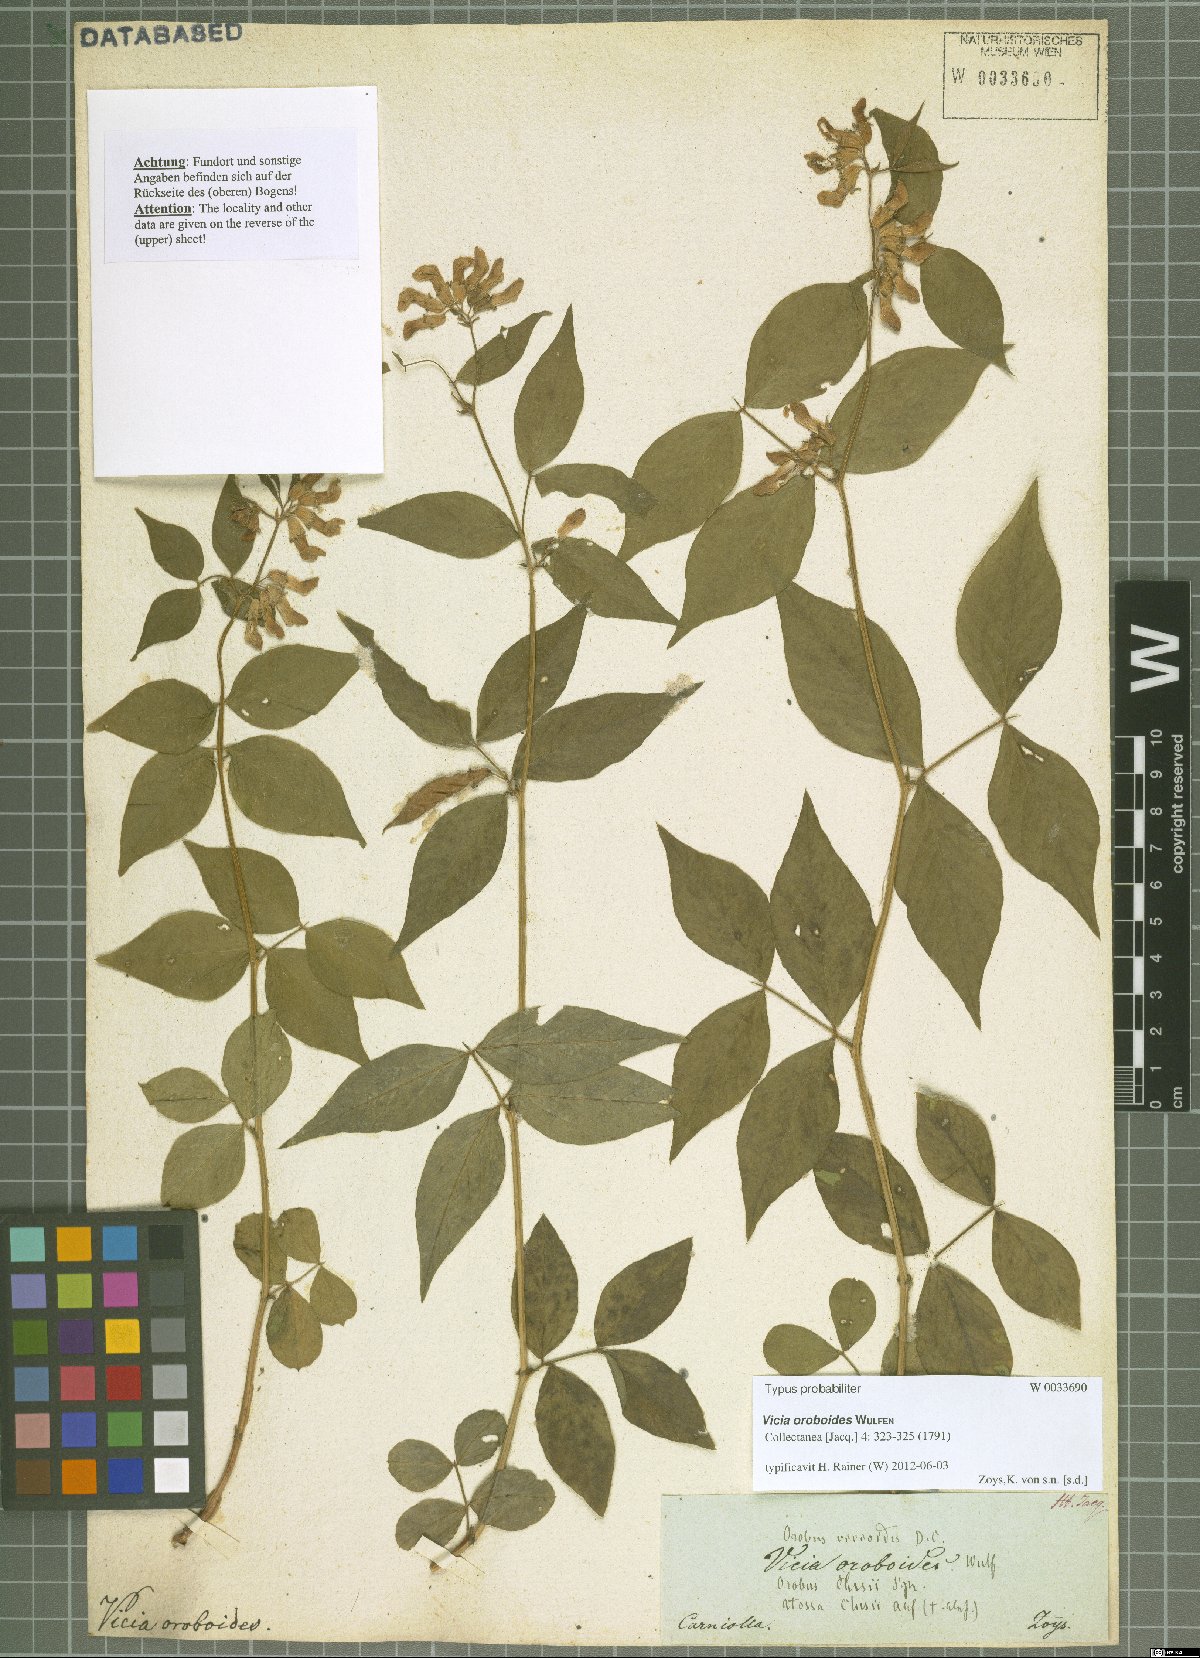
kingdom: Plantae
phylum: Tracheophyta
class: Magnoliopsida
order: Fabales
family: Fabaceae
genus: Vicia
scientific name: Vicia oroboides
